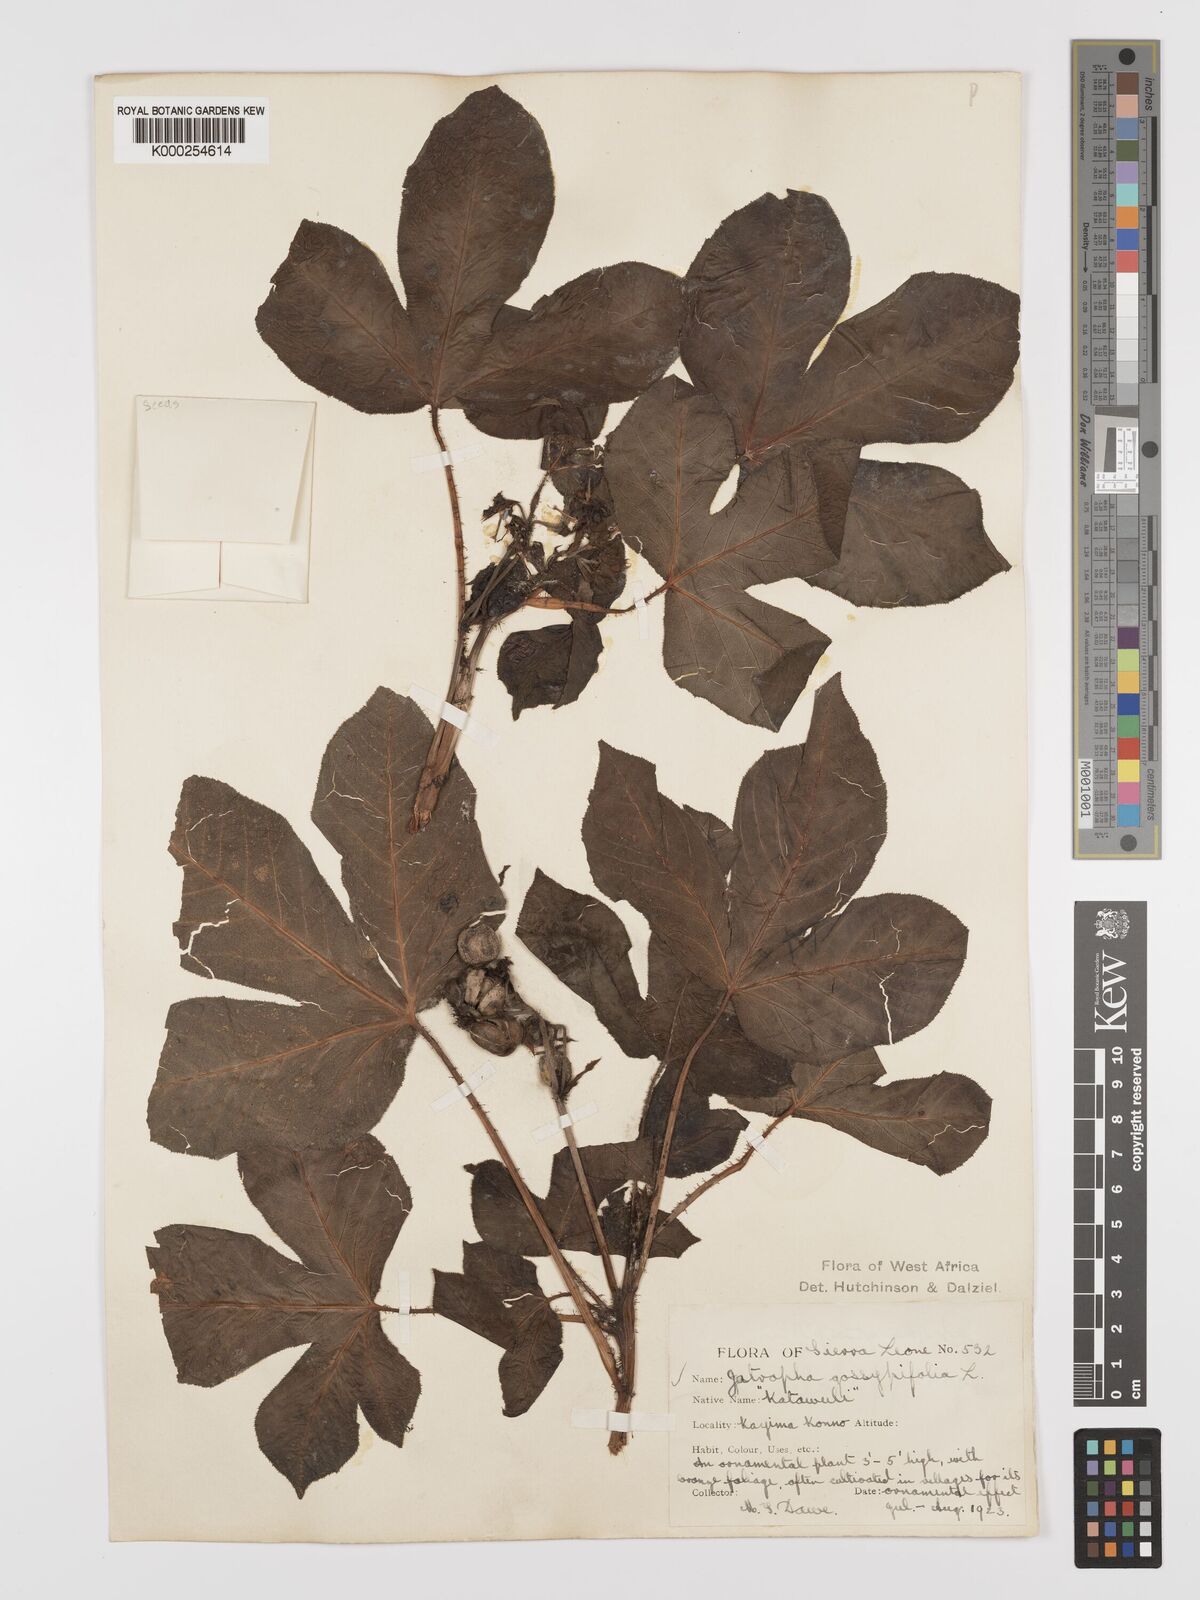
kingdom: Plantae
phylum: Tracheophyta
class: Magnoliopsida
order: Malpighiales
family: Euphorbiaceae
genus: Jatropha
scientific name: Jatropha gossypiifolia
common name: Bellyache bush
